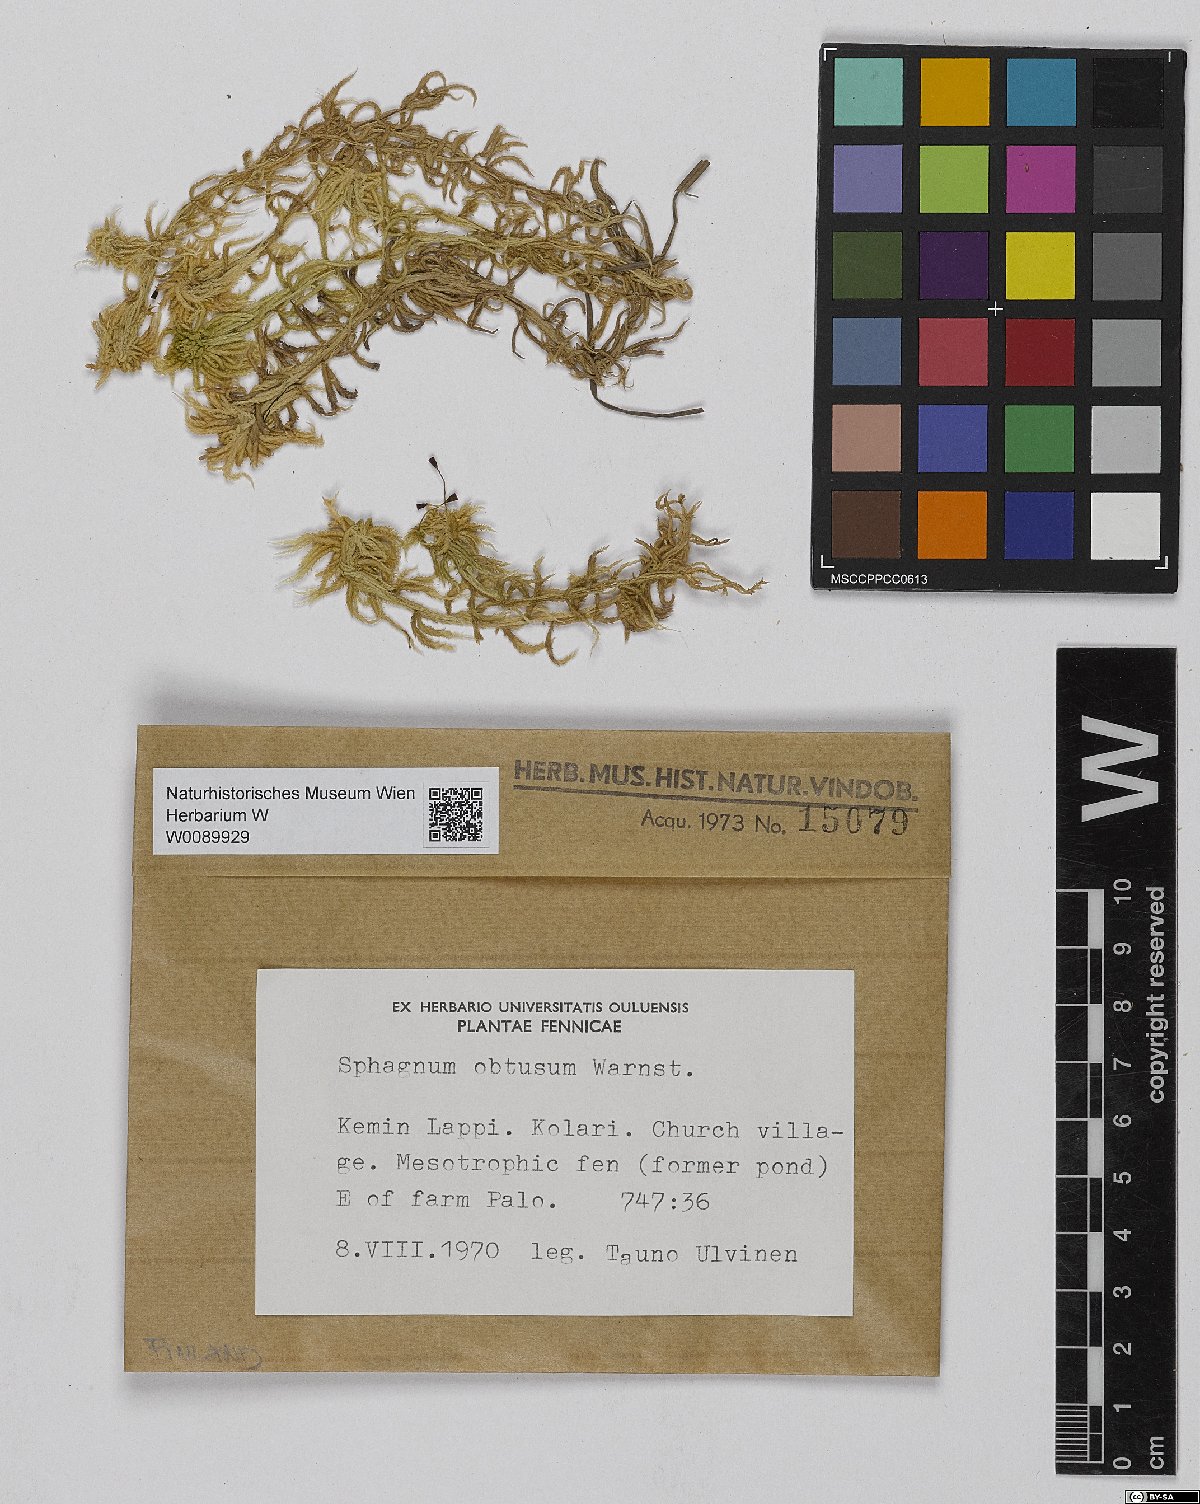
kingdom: Plantae
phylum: Bryophyta
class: Sphagnopsida
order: Sphagnales
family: Sphagnaceae
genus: Sphagnum
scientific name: Sphagnum obtusum
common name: Obtuse peat moss
